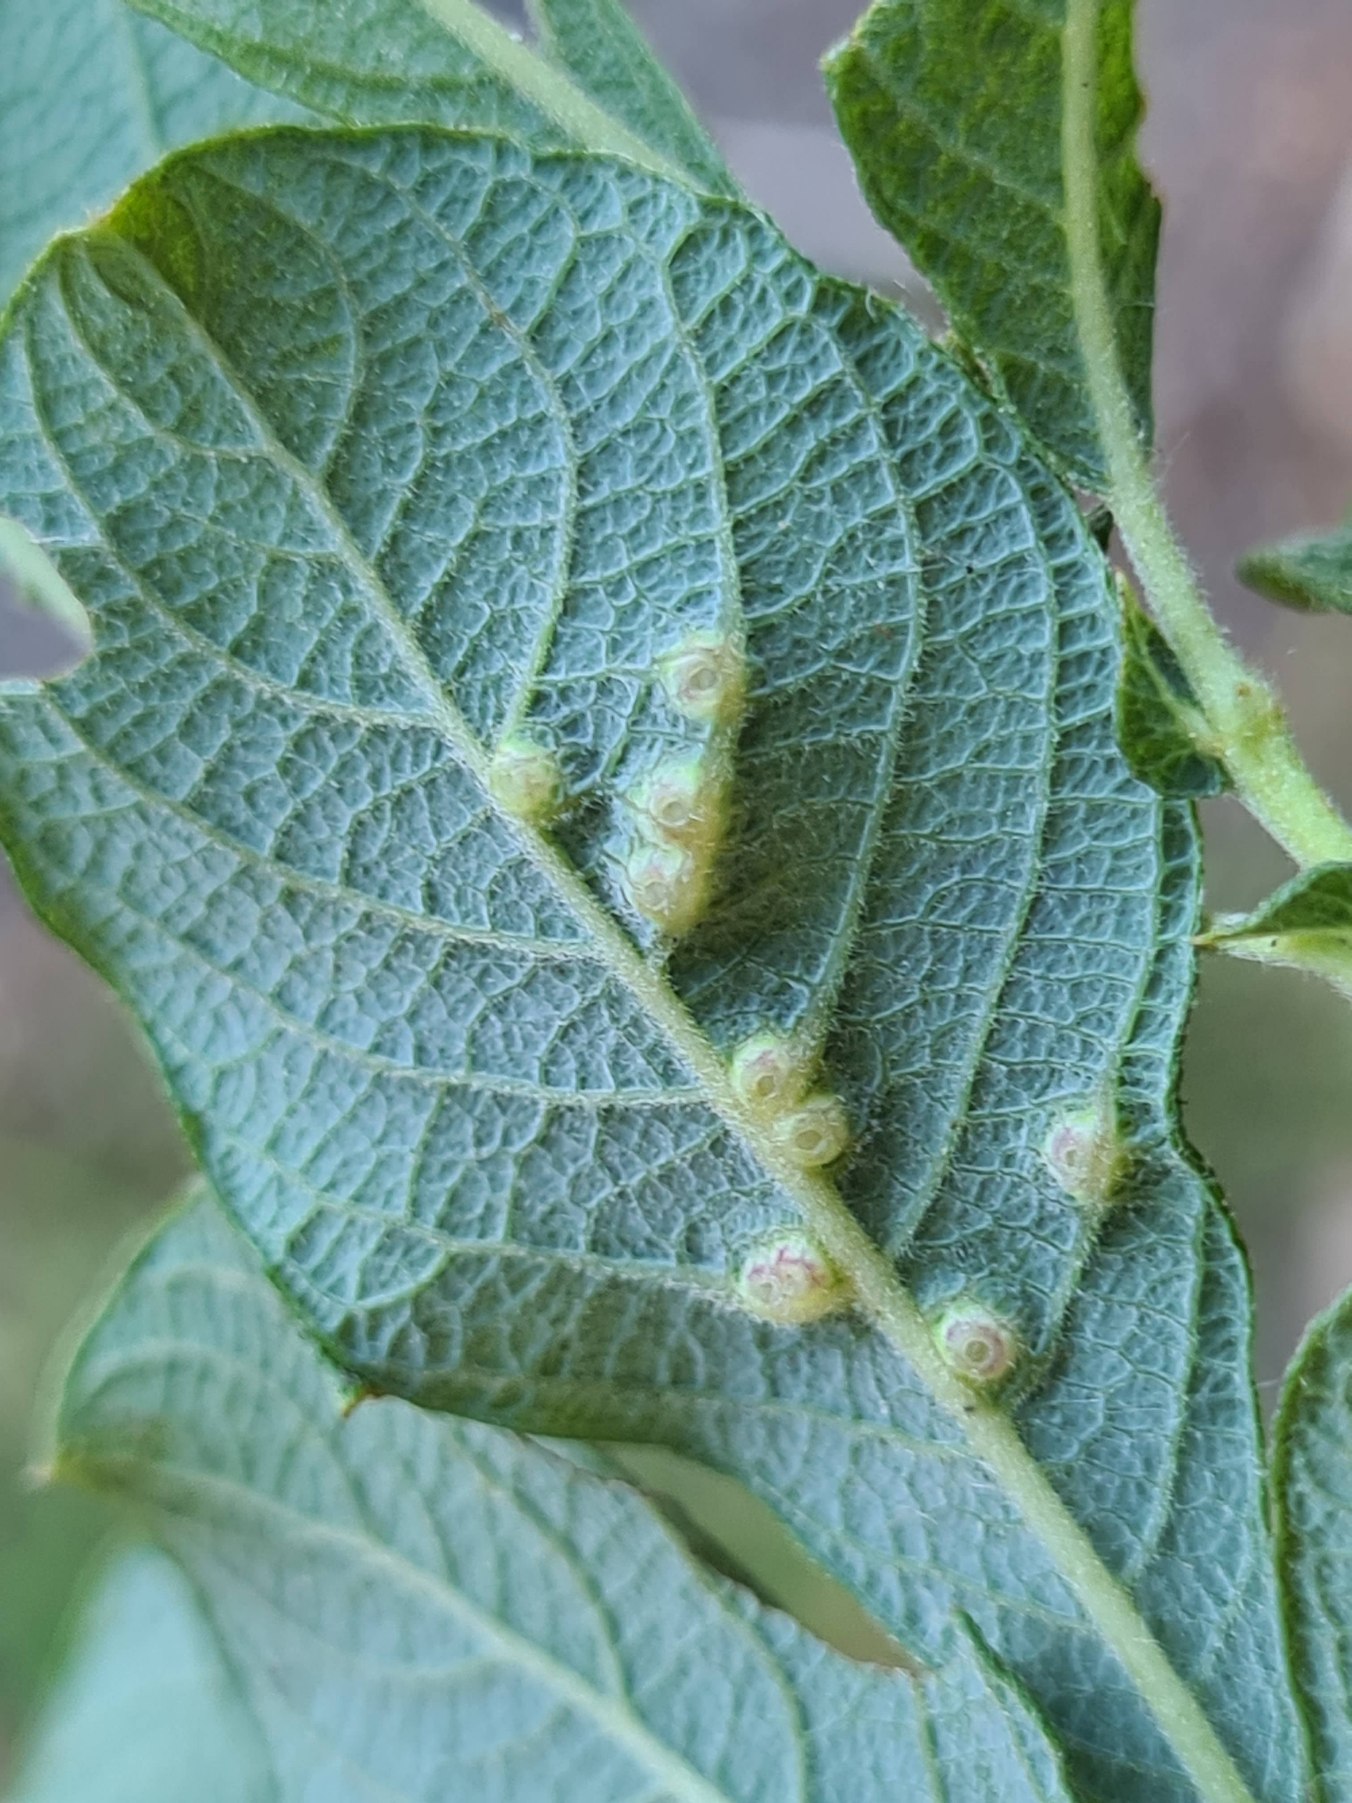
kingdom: Animalia
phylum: Arthropoda
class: Insecta
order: Diptera
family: Cecidomyiidae
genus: Iteomyia
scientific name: Iteomyia capreae
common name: Lille seljebladgalmyg
